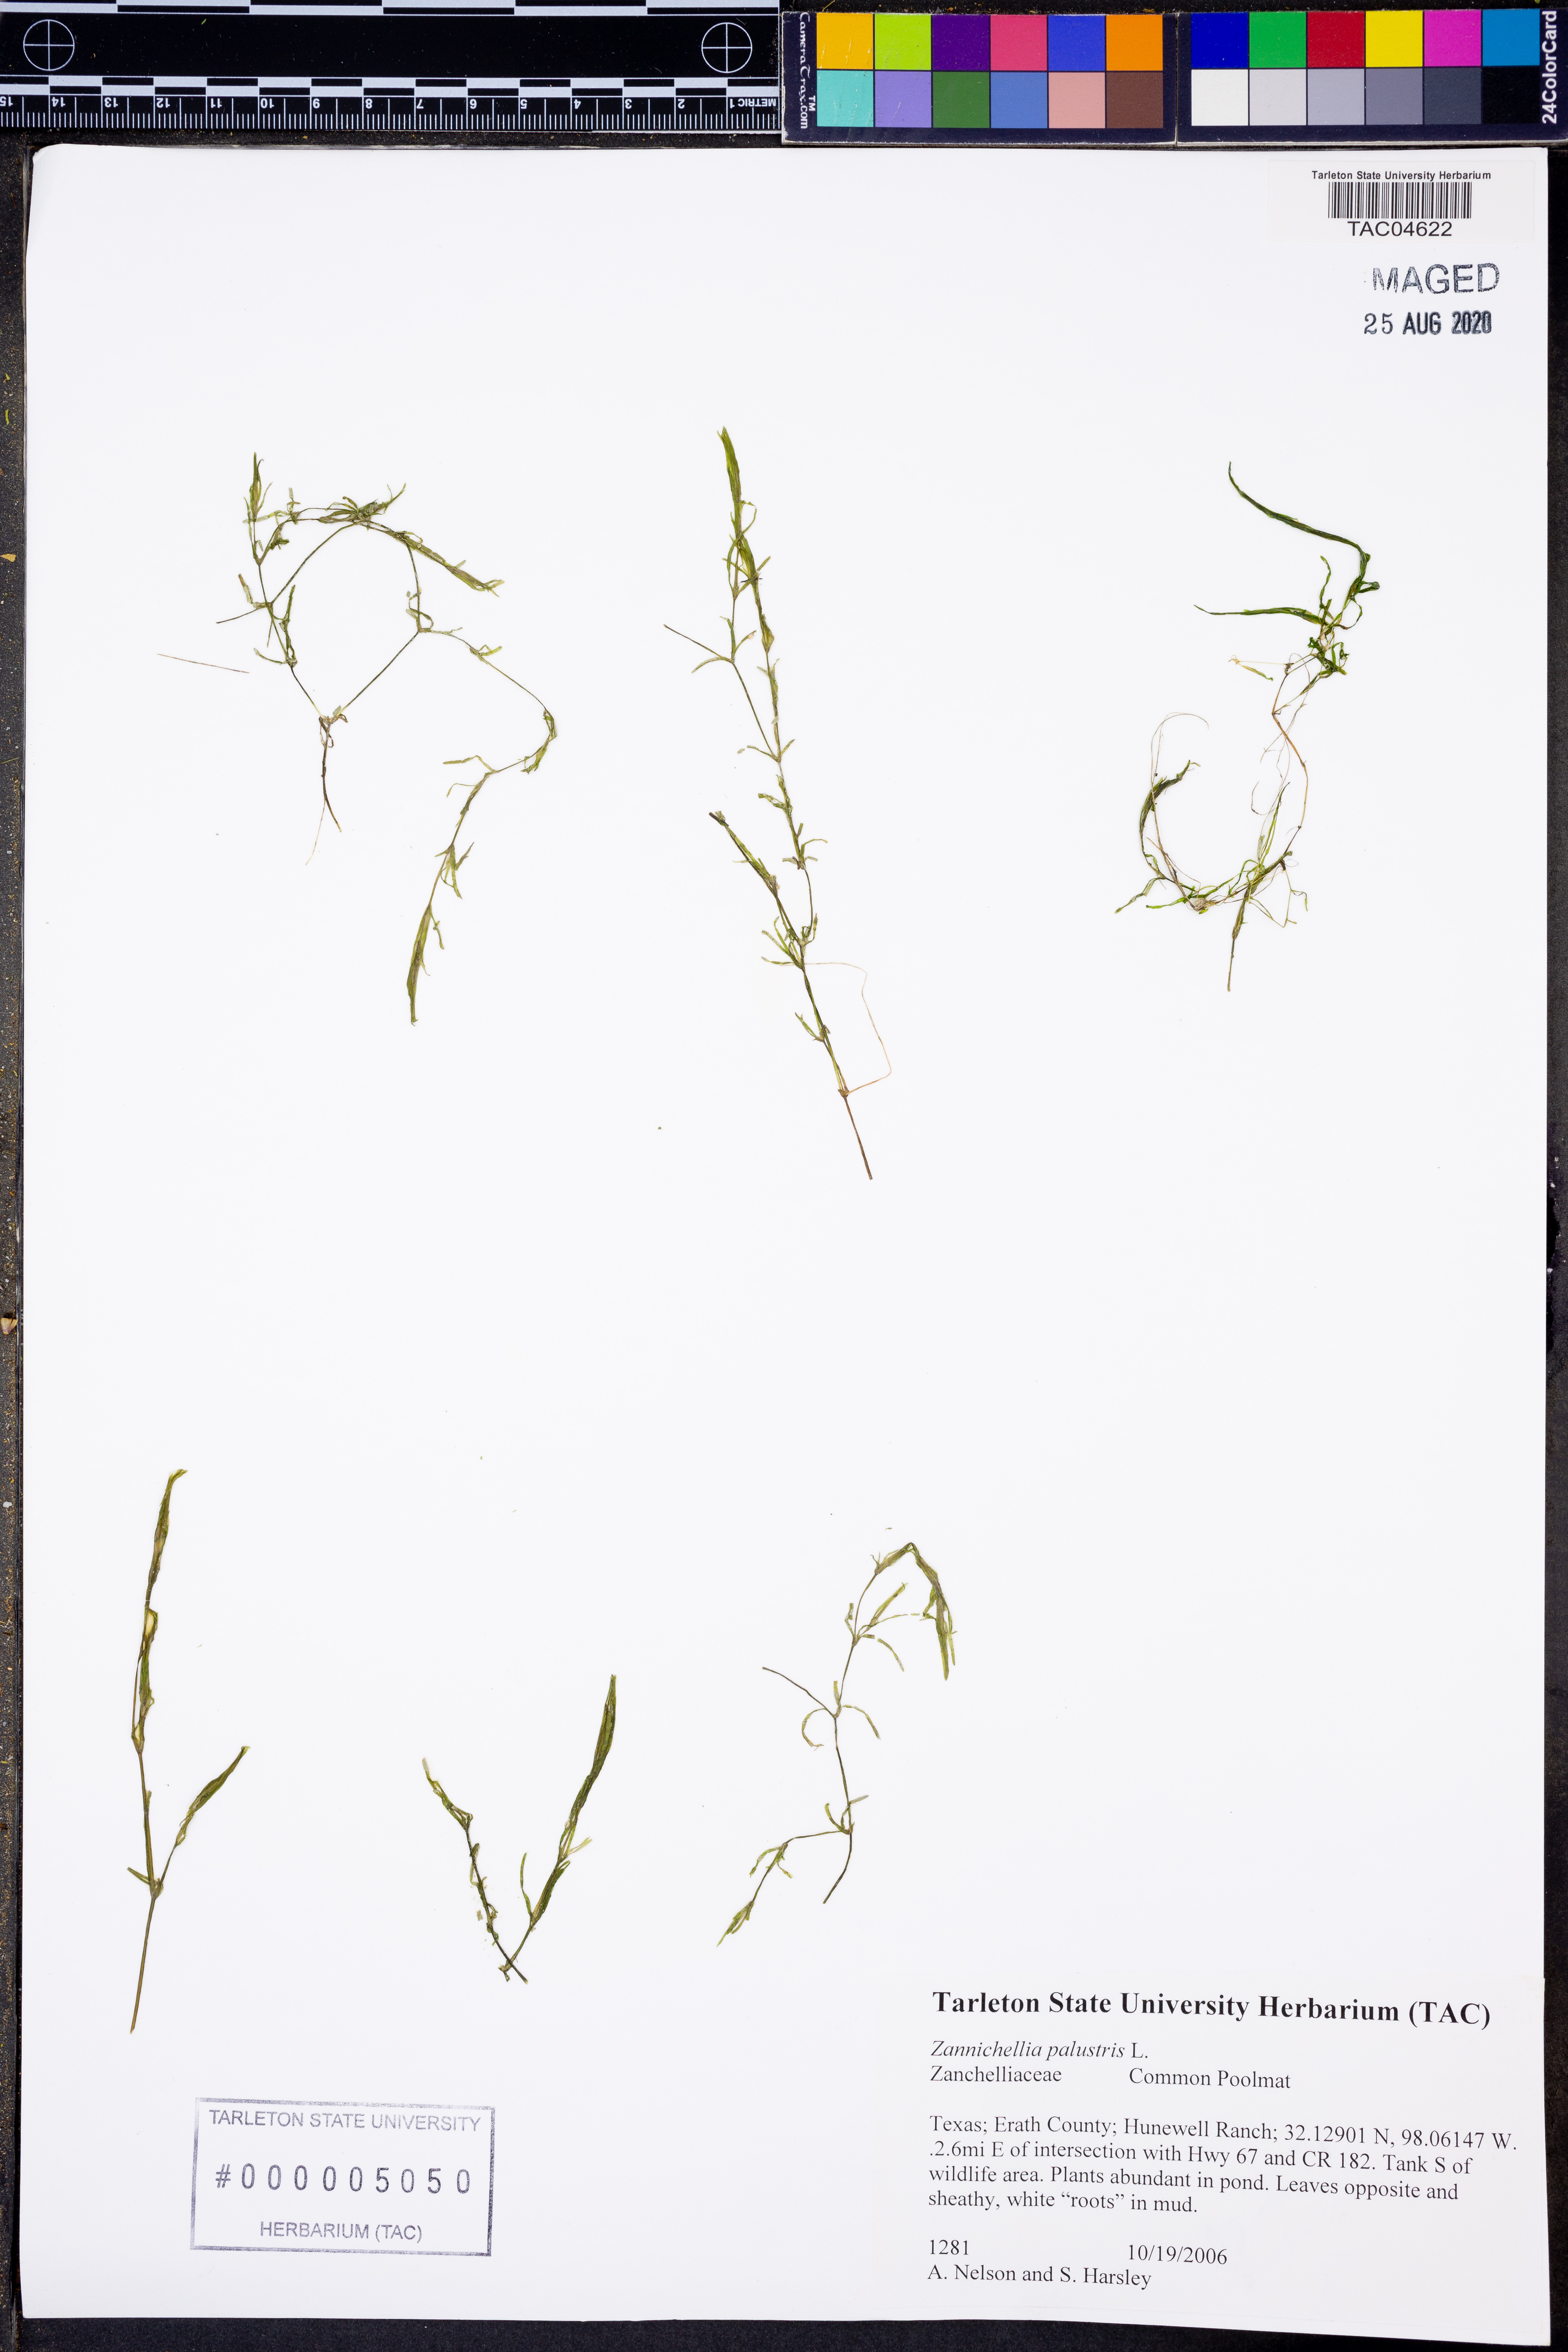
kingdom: Plantae
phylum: Tracheophyta
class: Liliopsida
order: Alismatales
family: Potamogetonaceae
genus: Zannichellia
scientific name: Zannichellia palustris
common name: Horned pondweed
